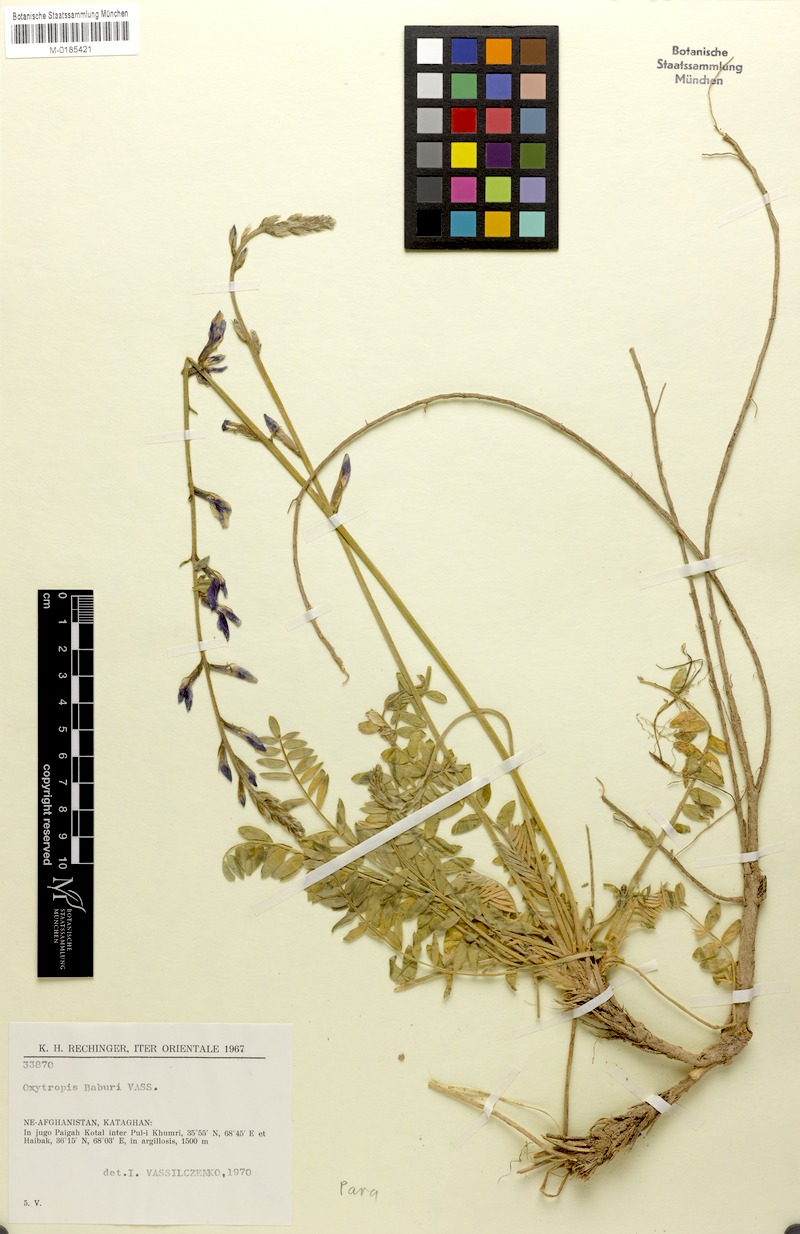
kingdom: Plantae
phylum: Tracheophyta
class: Magnoliopsida
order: Fabales
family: Fabaceae
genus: Oxytropis
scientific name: Oxytropis baburi
